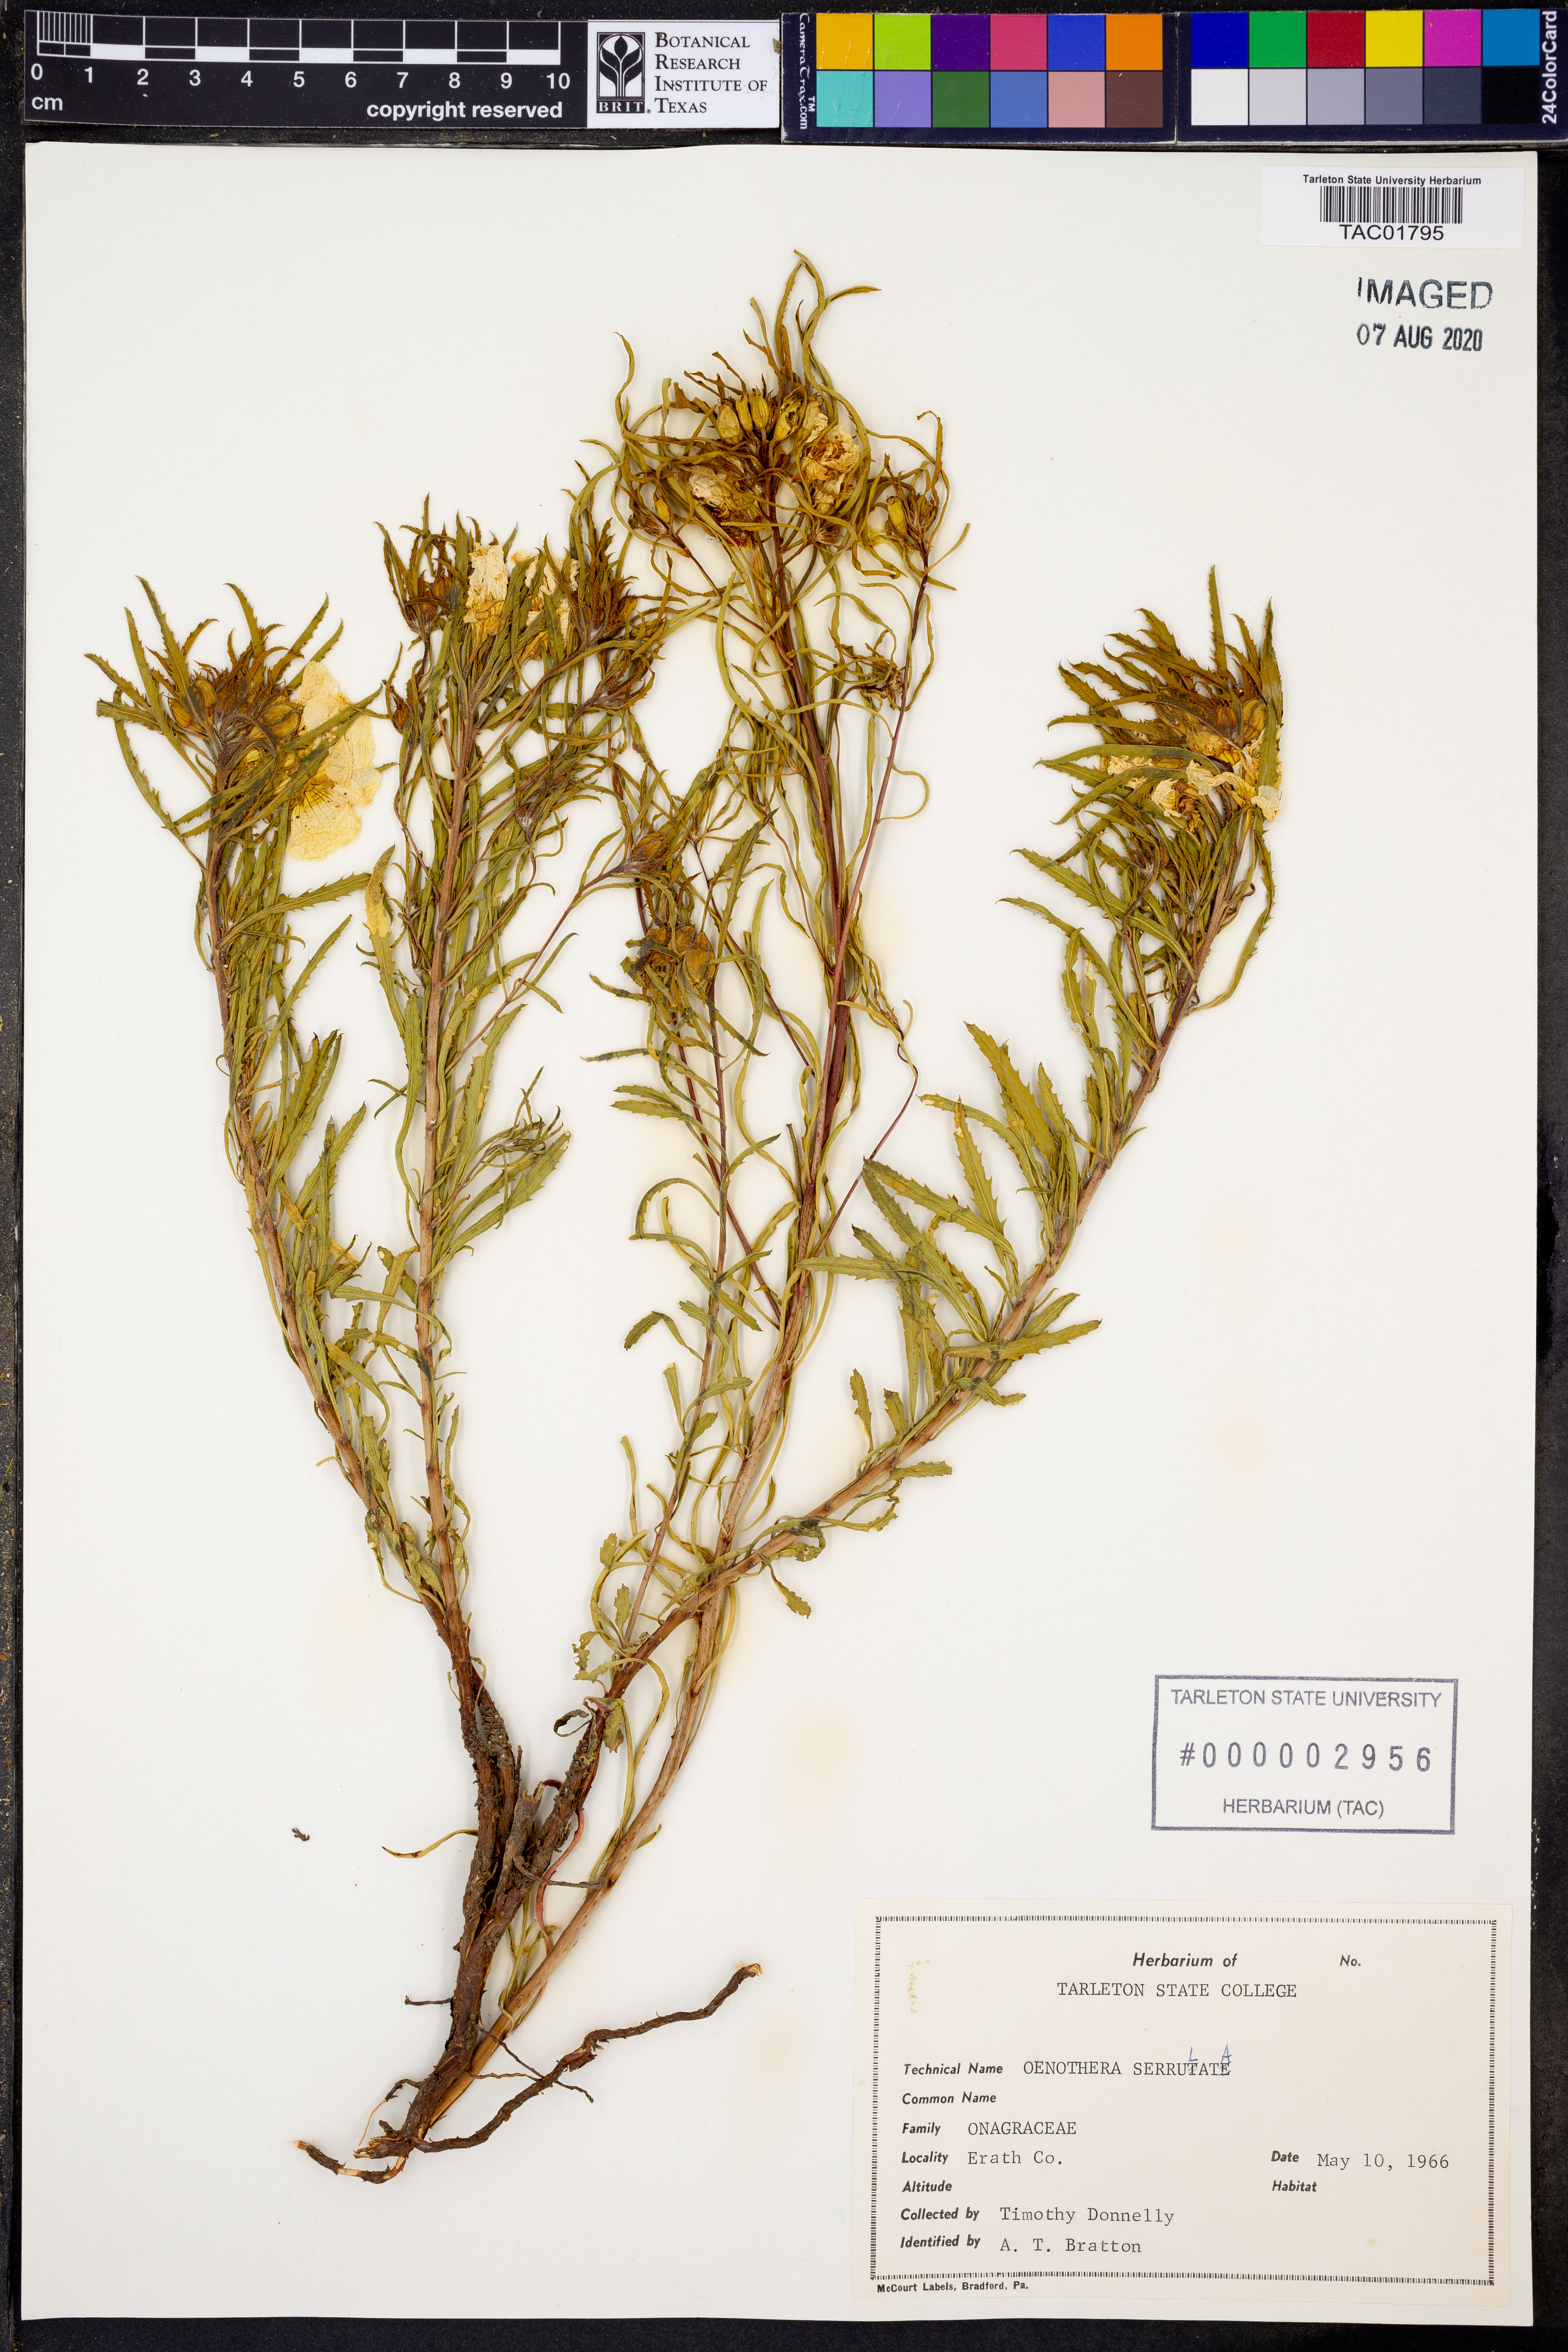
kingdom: Plantae
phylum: Tracheophyta
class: Magnoliopsida
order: Myrtales
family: Onagraceae
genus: Oenothera
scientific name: Oenothera serrulata
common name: Half-shrub calylophus
